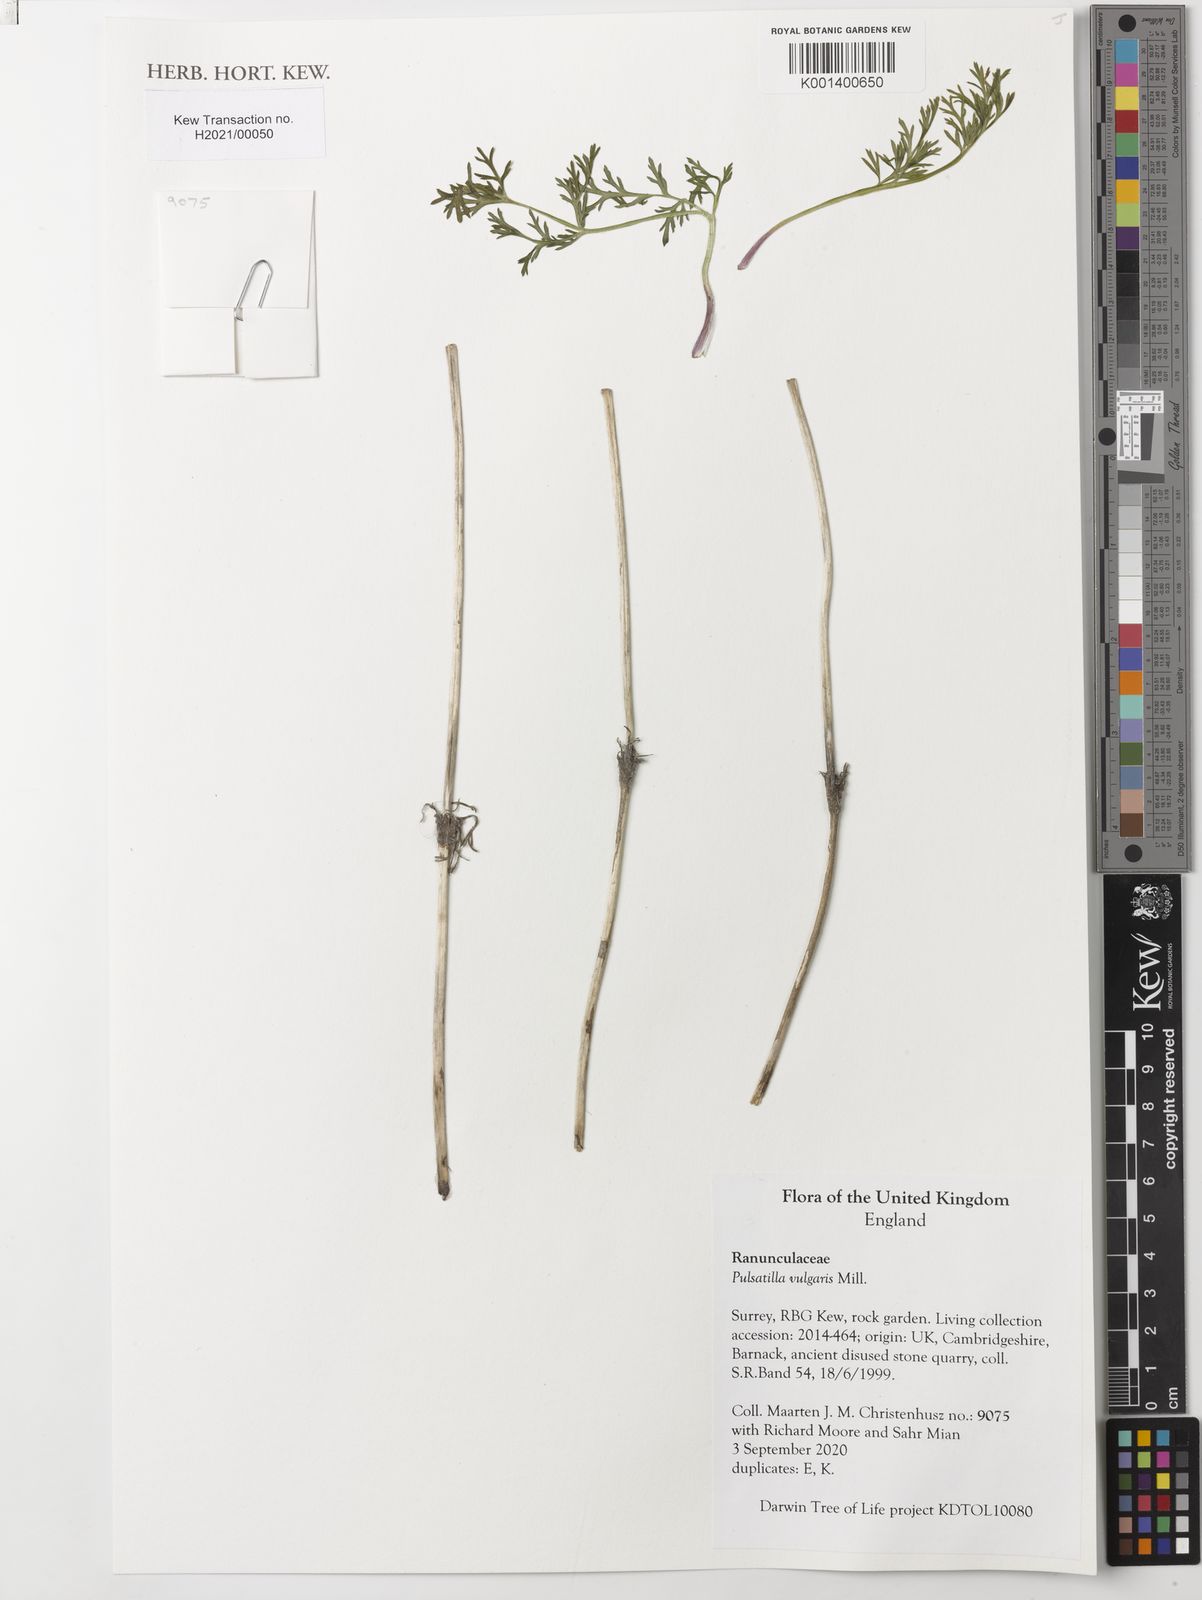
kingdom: Plantae
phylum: Tracheophyta
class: Magnoliopsida
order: Ranunculales
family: Ranunculaceae
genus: Pulsatilla
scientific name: Pulsatilla vulgaris
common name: Pasqueflower
